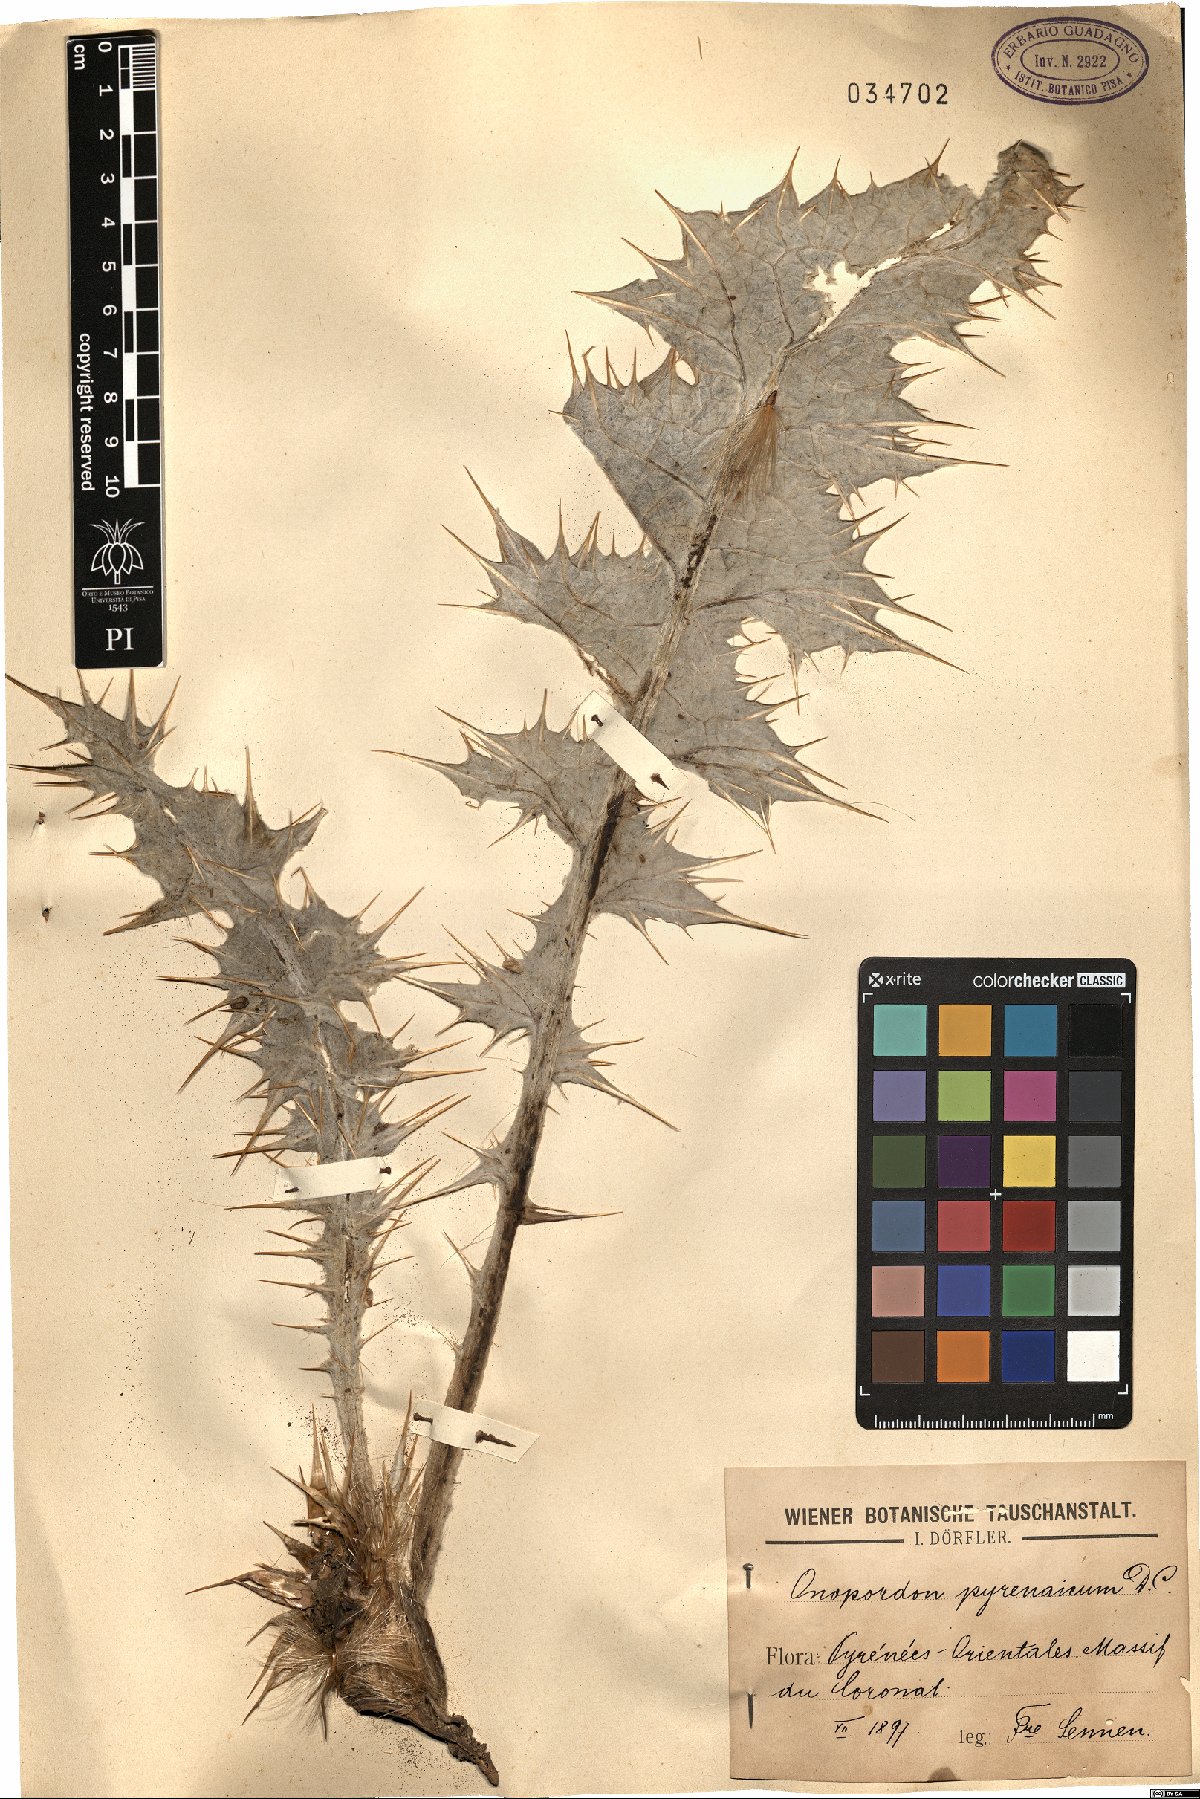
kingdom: Plantae
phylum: Tracheophyta
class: Magnoliopsida
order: Asterales
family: Asteraceae
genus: Onopordum
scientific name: Onopordum acaulon
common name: Horse thistle
